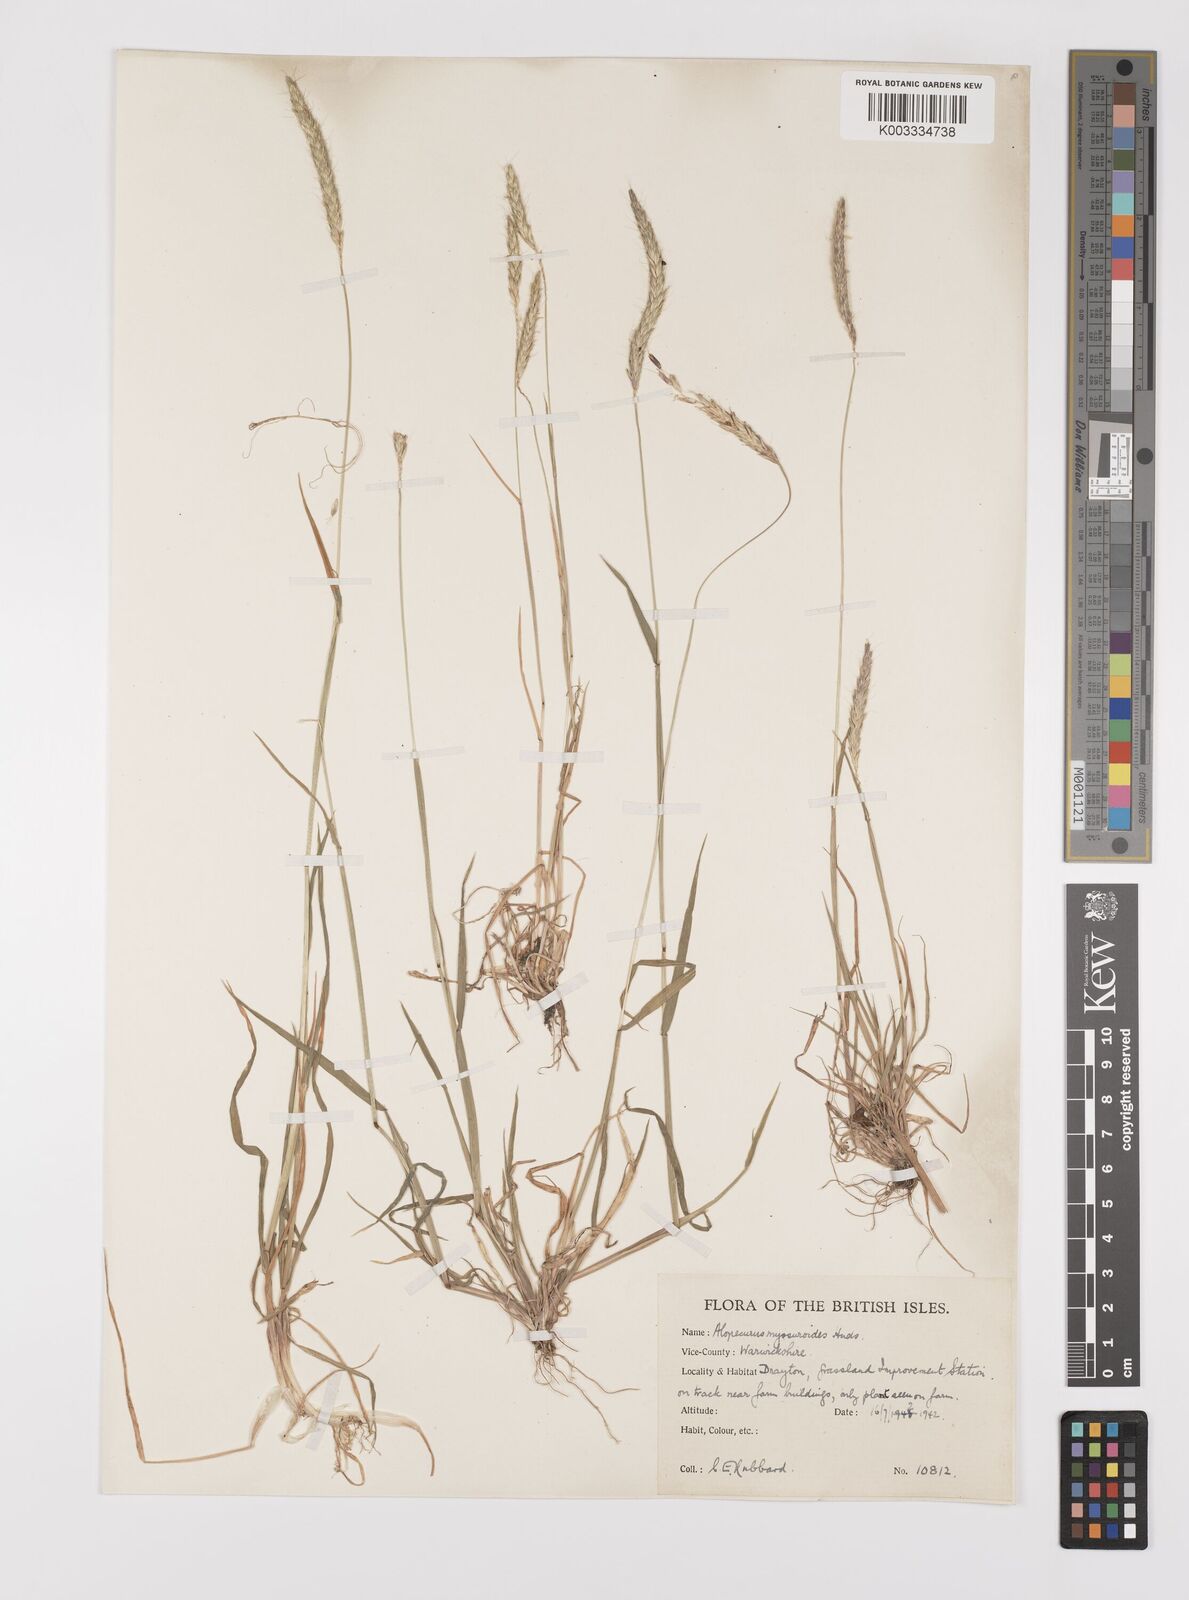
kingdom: Plantae
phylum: Tracheophyta
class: Liliopsida
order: Poales
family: Poaceae
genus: Alopecurus
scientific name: Alopecurus myosuroides
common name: Black-grass
